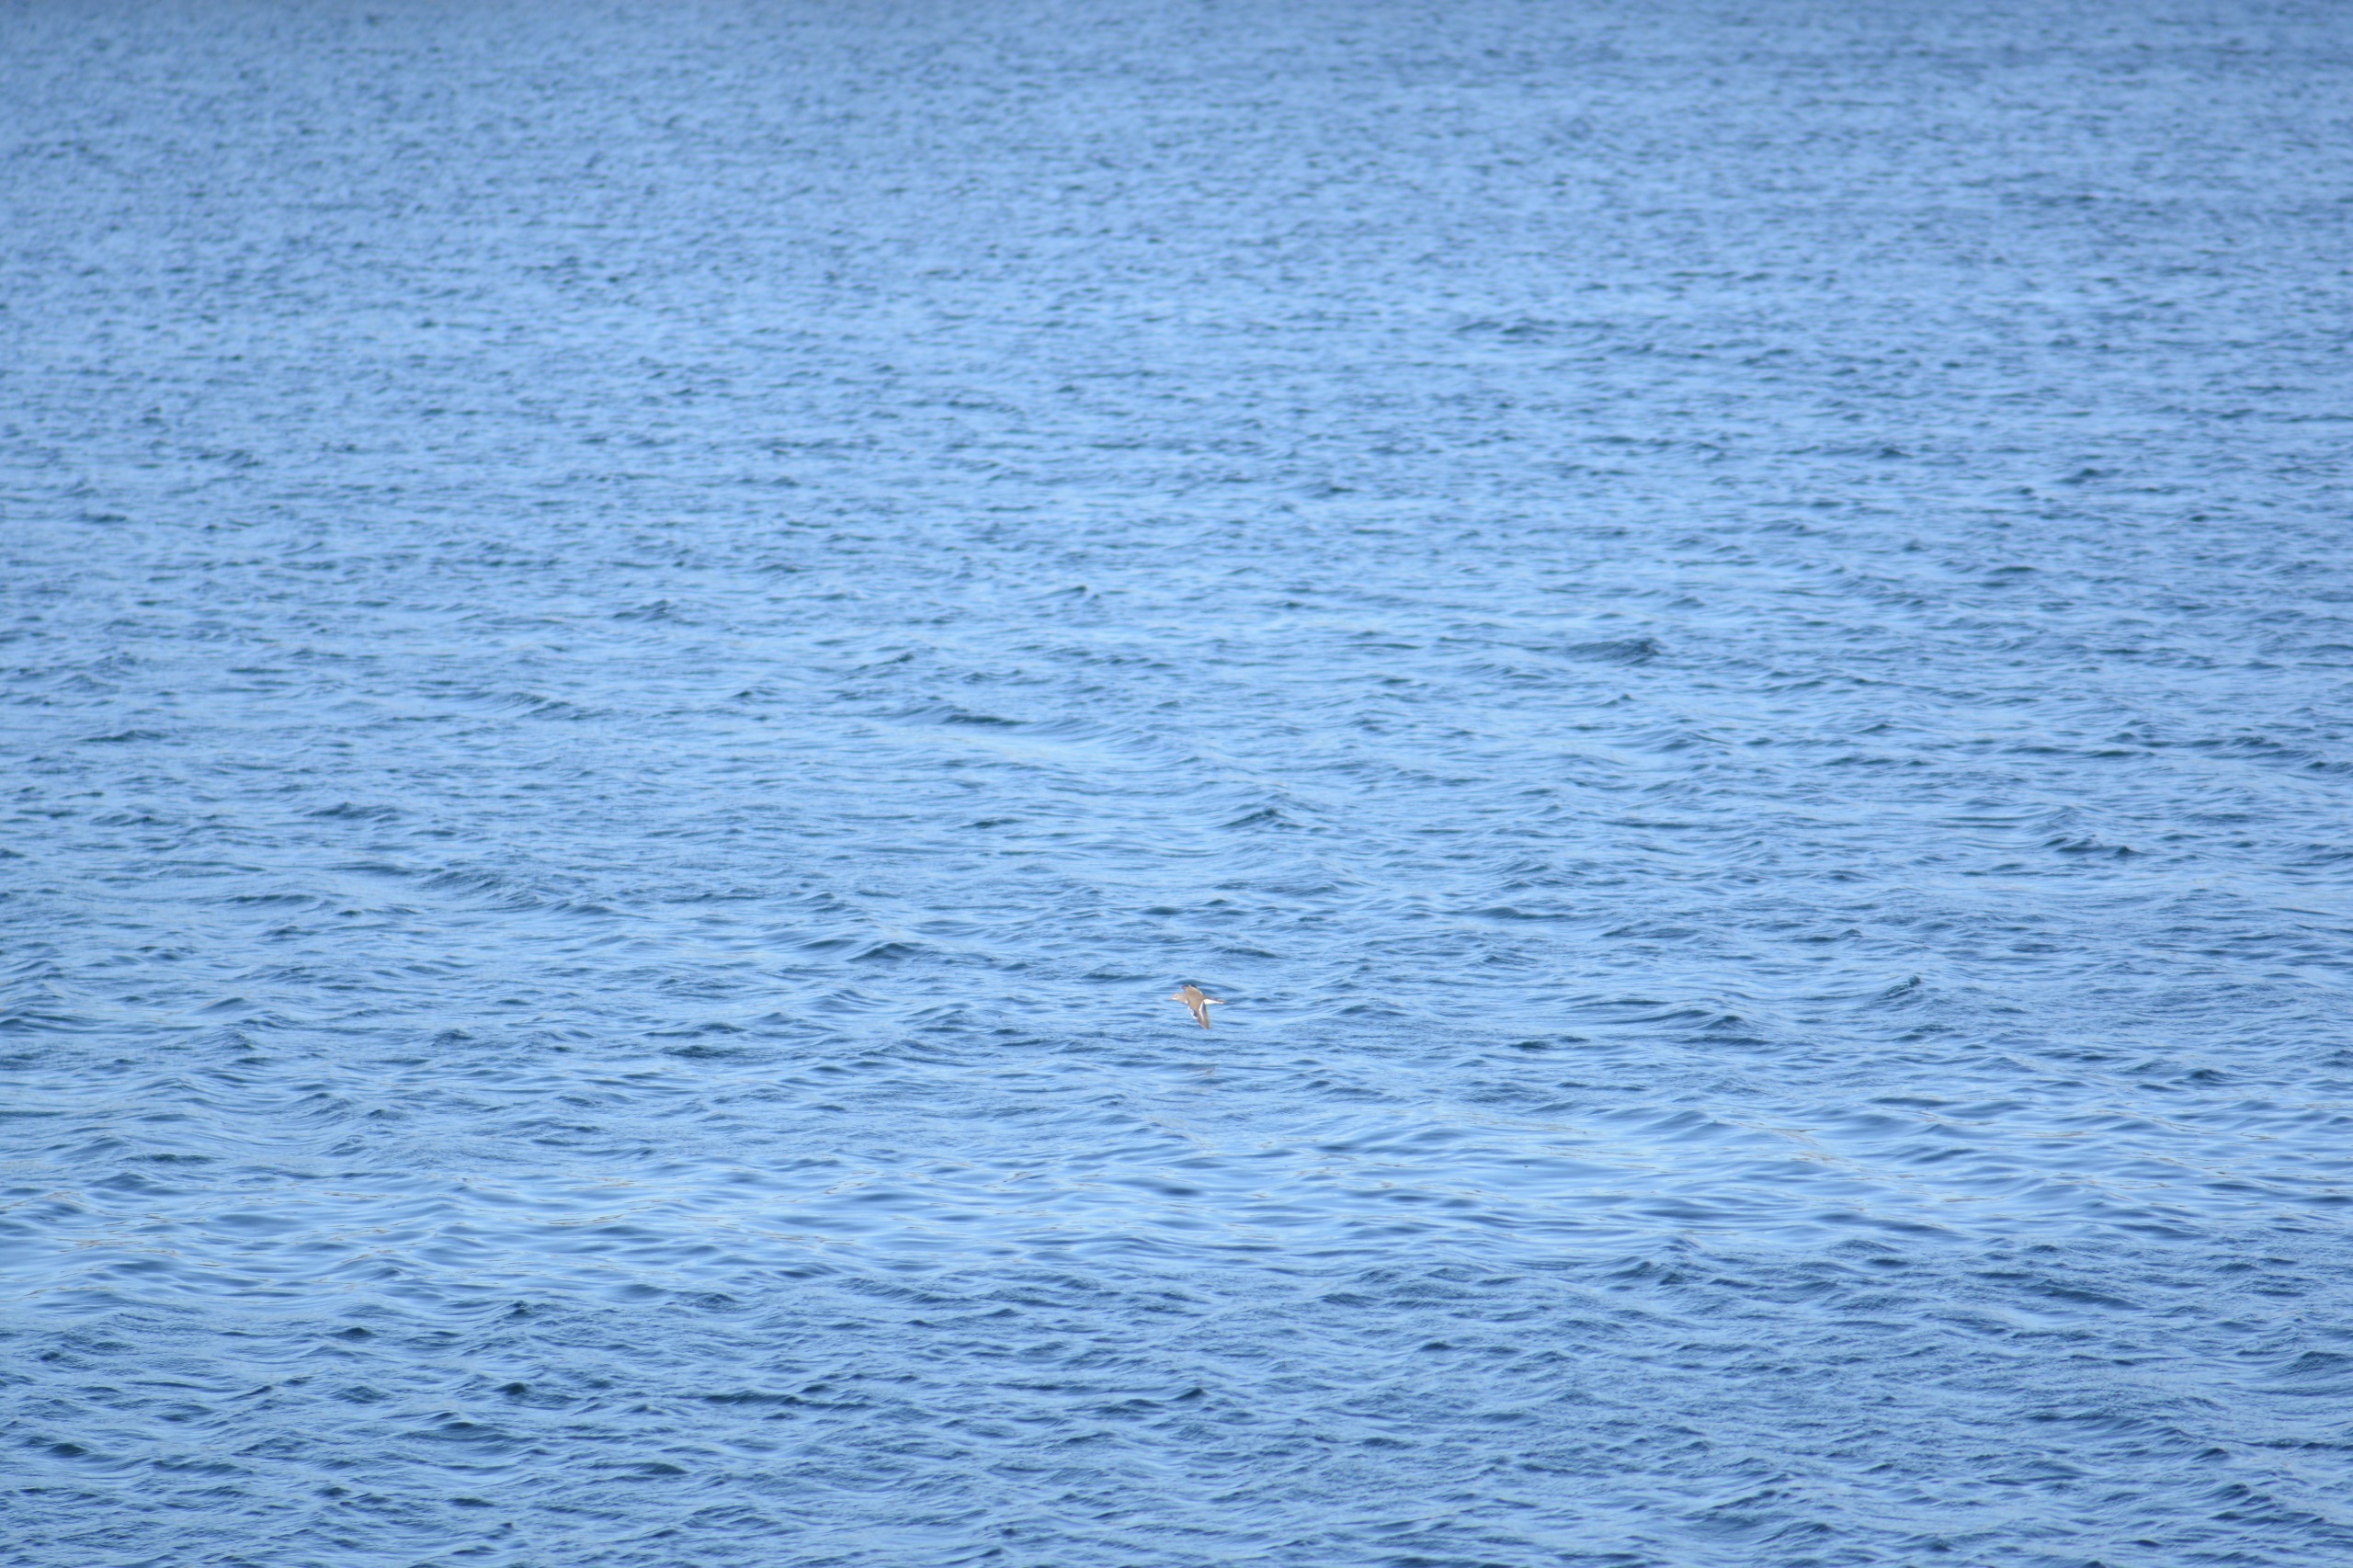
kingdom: Animalia
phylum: Chordata
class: Aves
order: Charadriiformes
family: Scolopacidae
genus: Actitis
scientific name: Actitis hypoleucos
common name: Mudderklire
